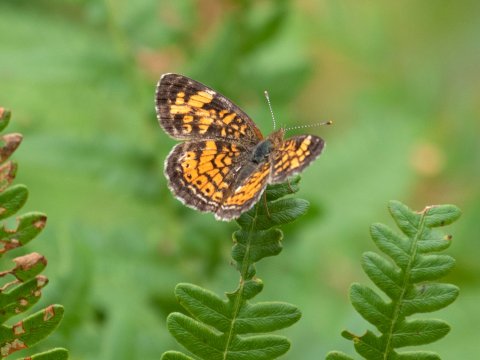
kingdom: Animalia
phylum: Arthropoda
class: Insecta
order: Lepidoptera
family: Nymphalidae
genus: Phyciodes
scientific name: Phyciodes
